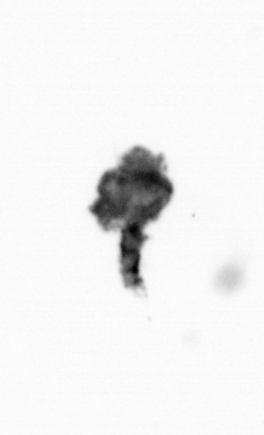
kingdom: Animalia
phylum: Arthropoda
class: Maxillopoda
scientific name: Maxillopoda
